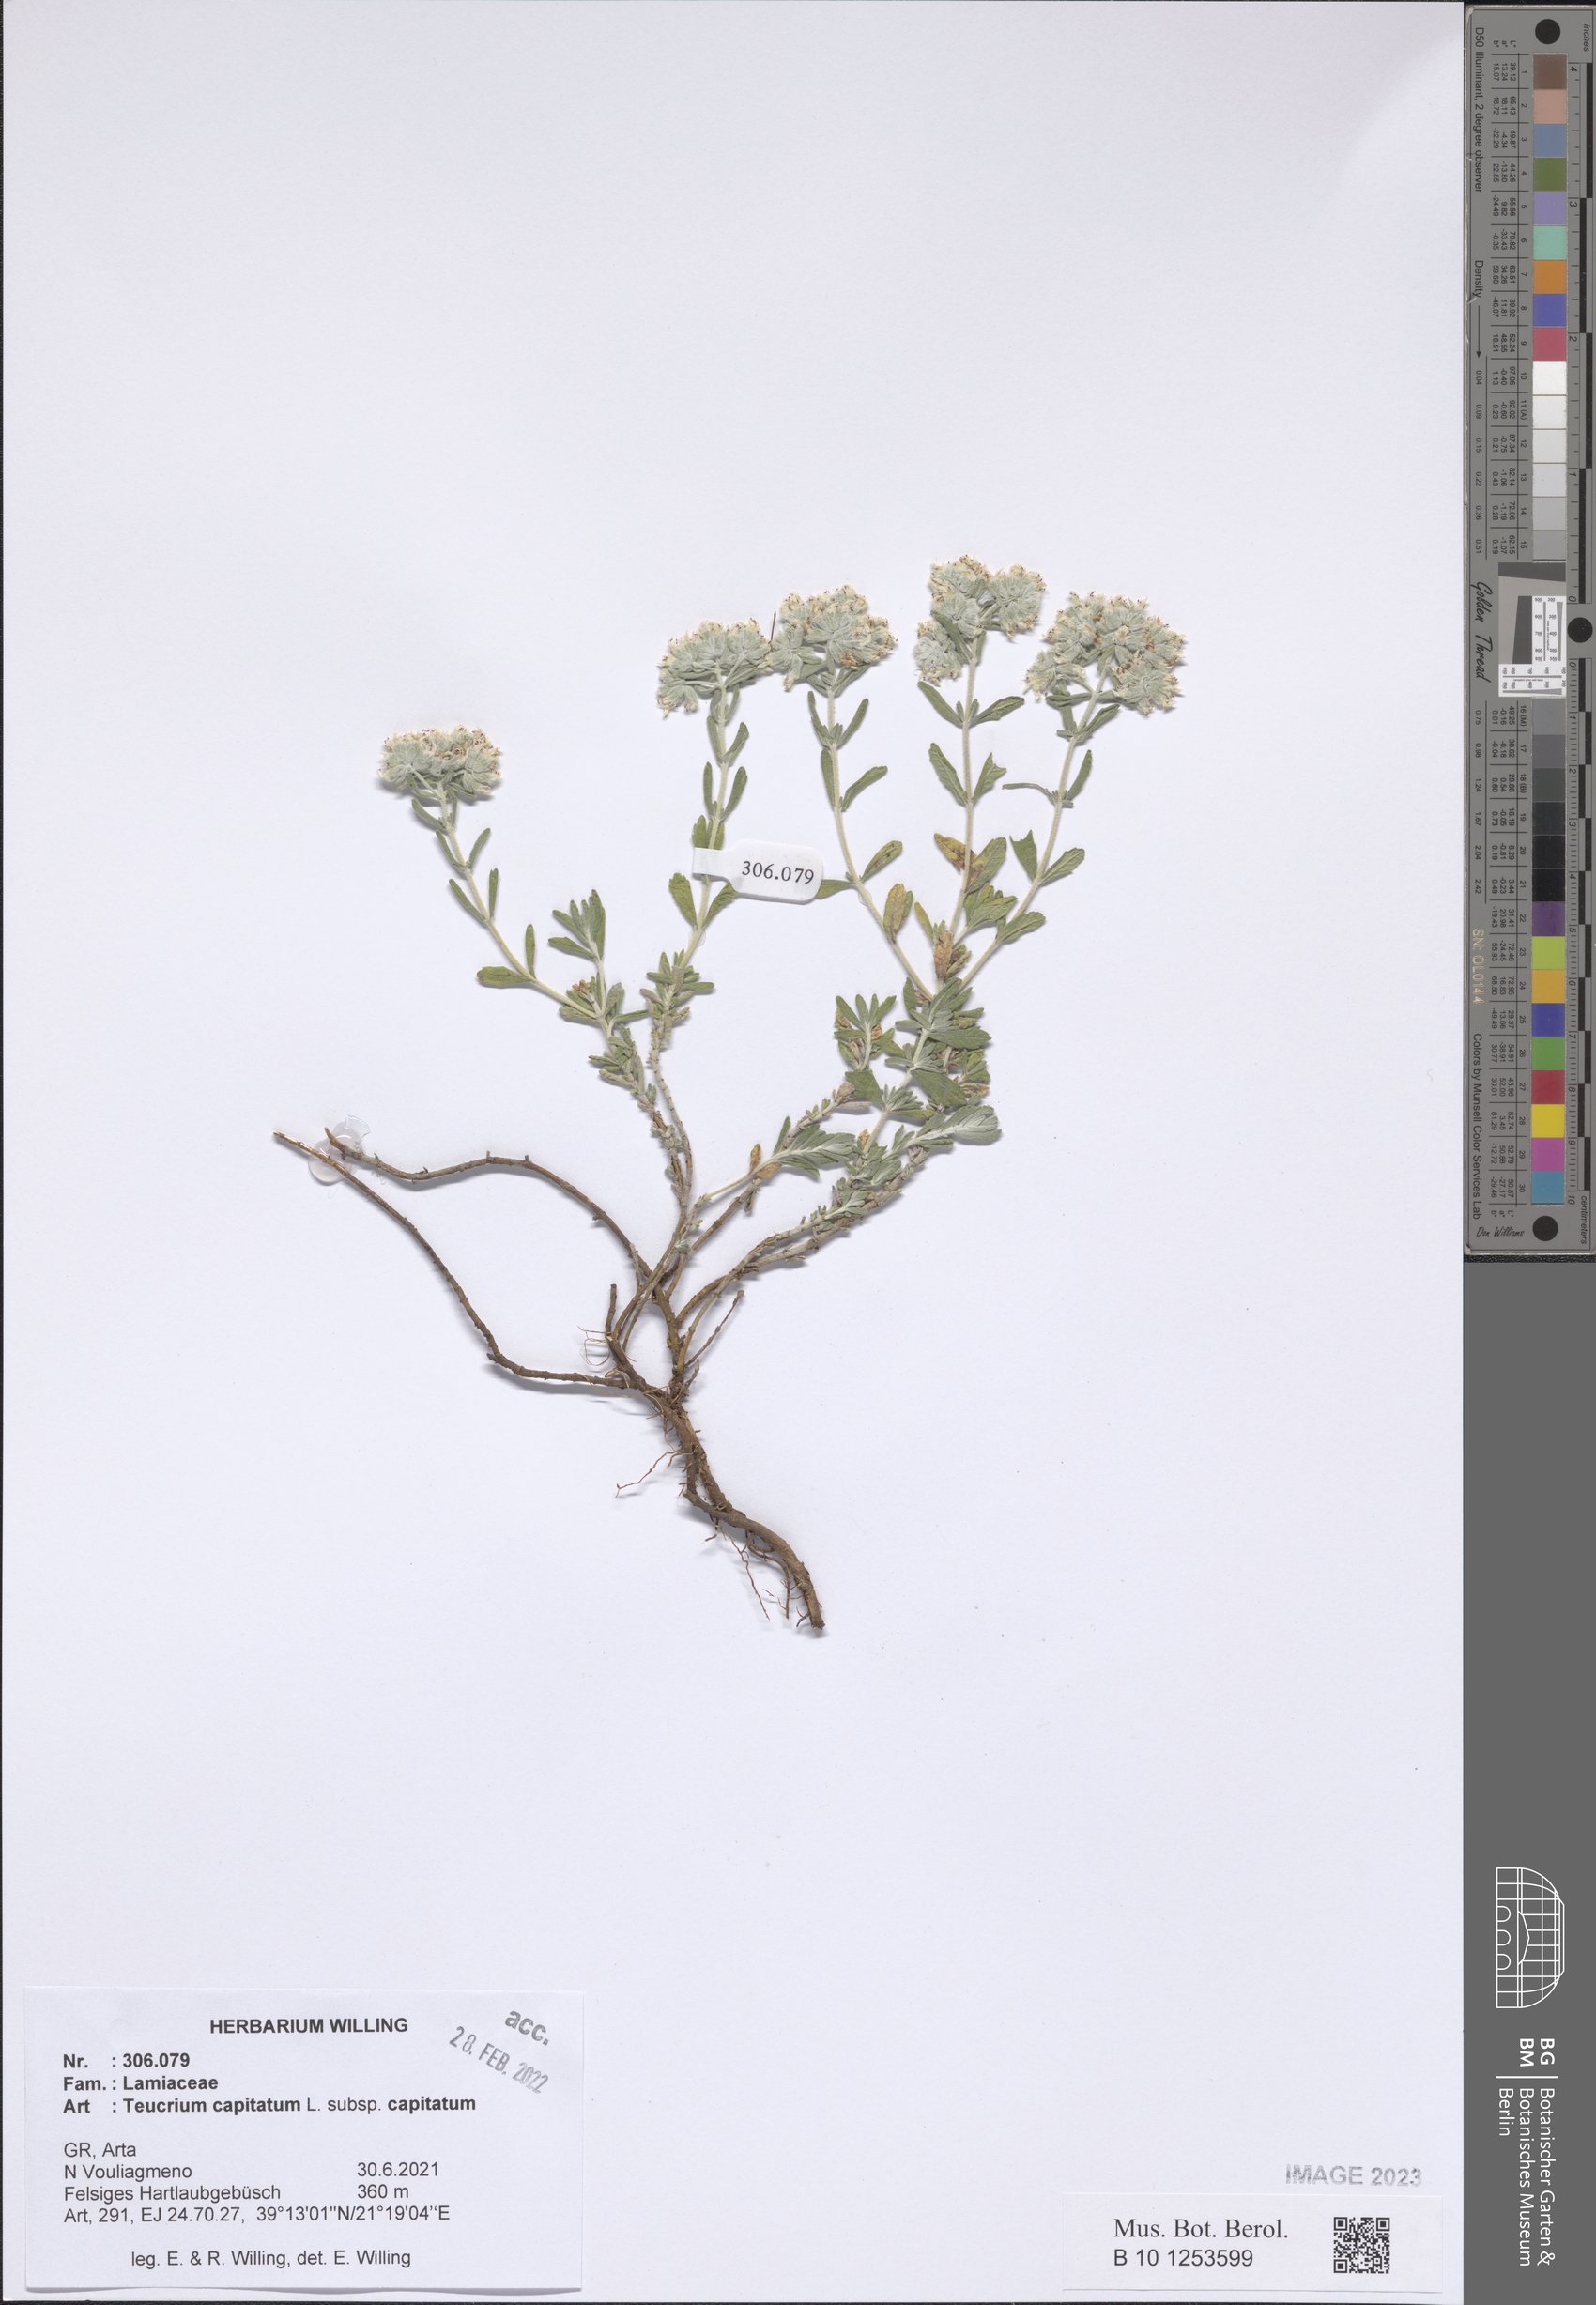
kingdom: Plantae
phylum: Tracheophyta
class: Magnoliopsida
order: Lamiales
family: Lamiaceae
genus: Teucrium
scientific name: Teucrium capitatum
